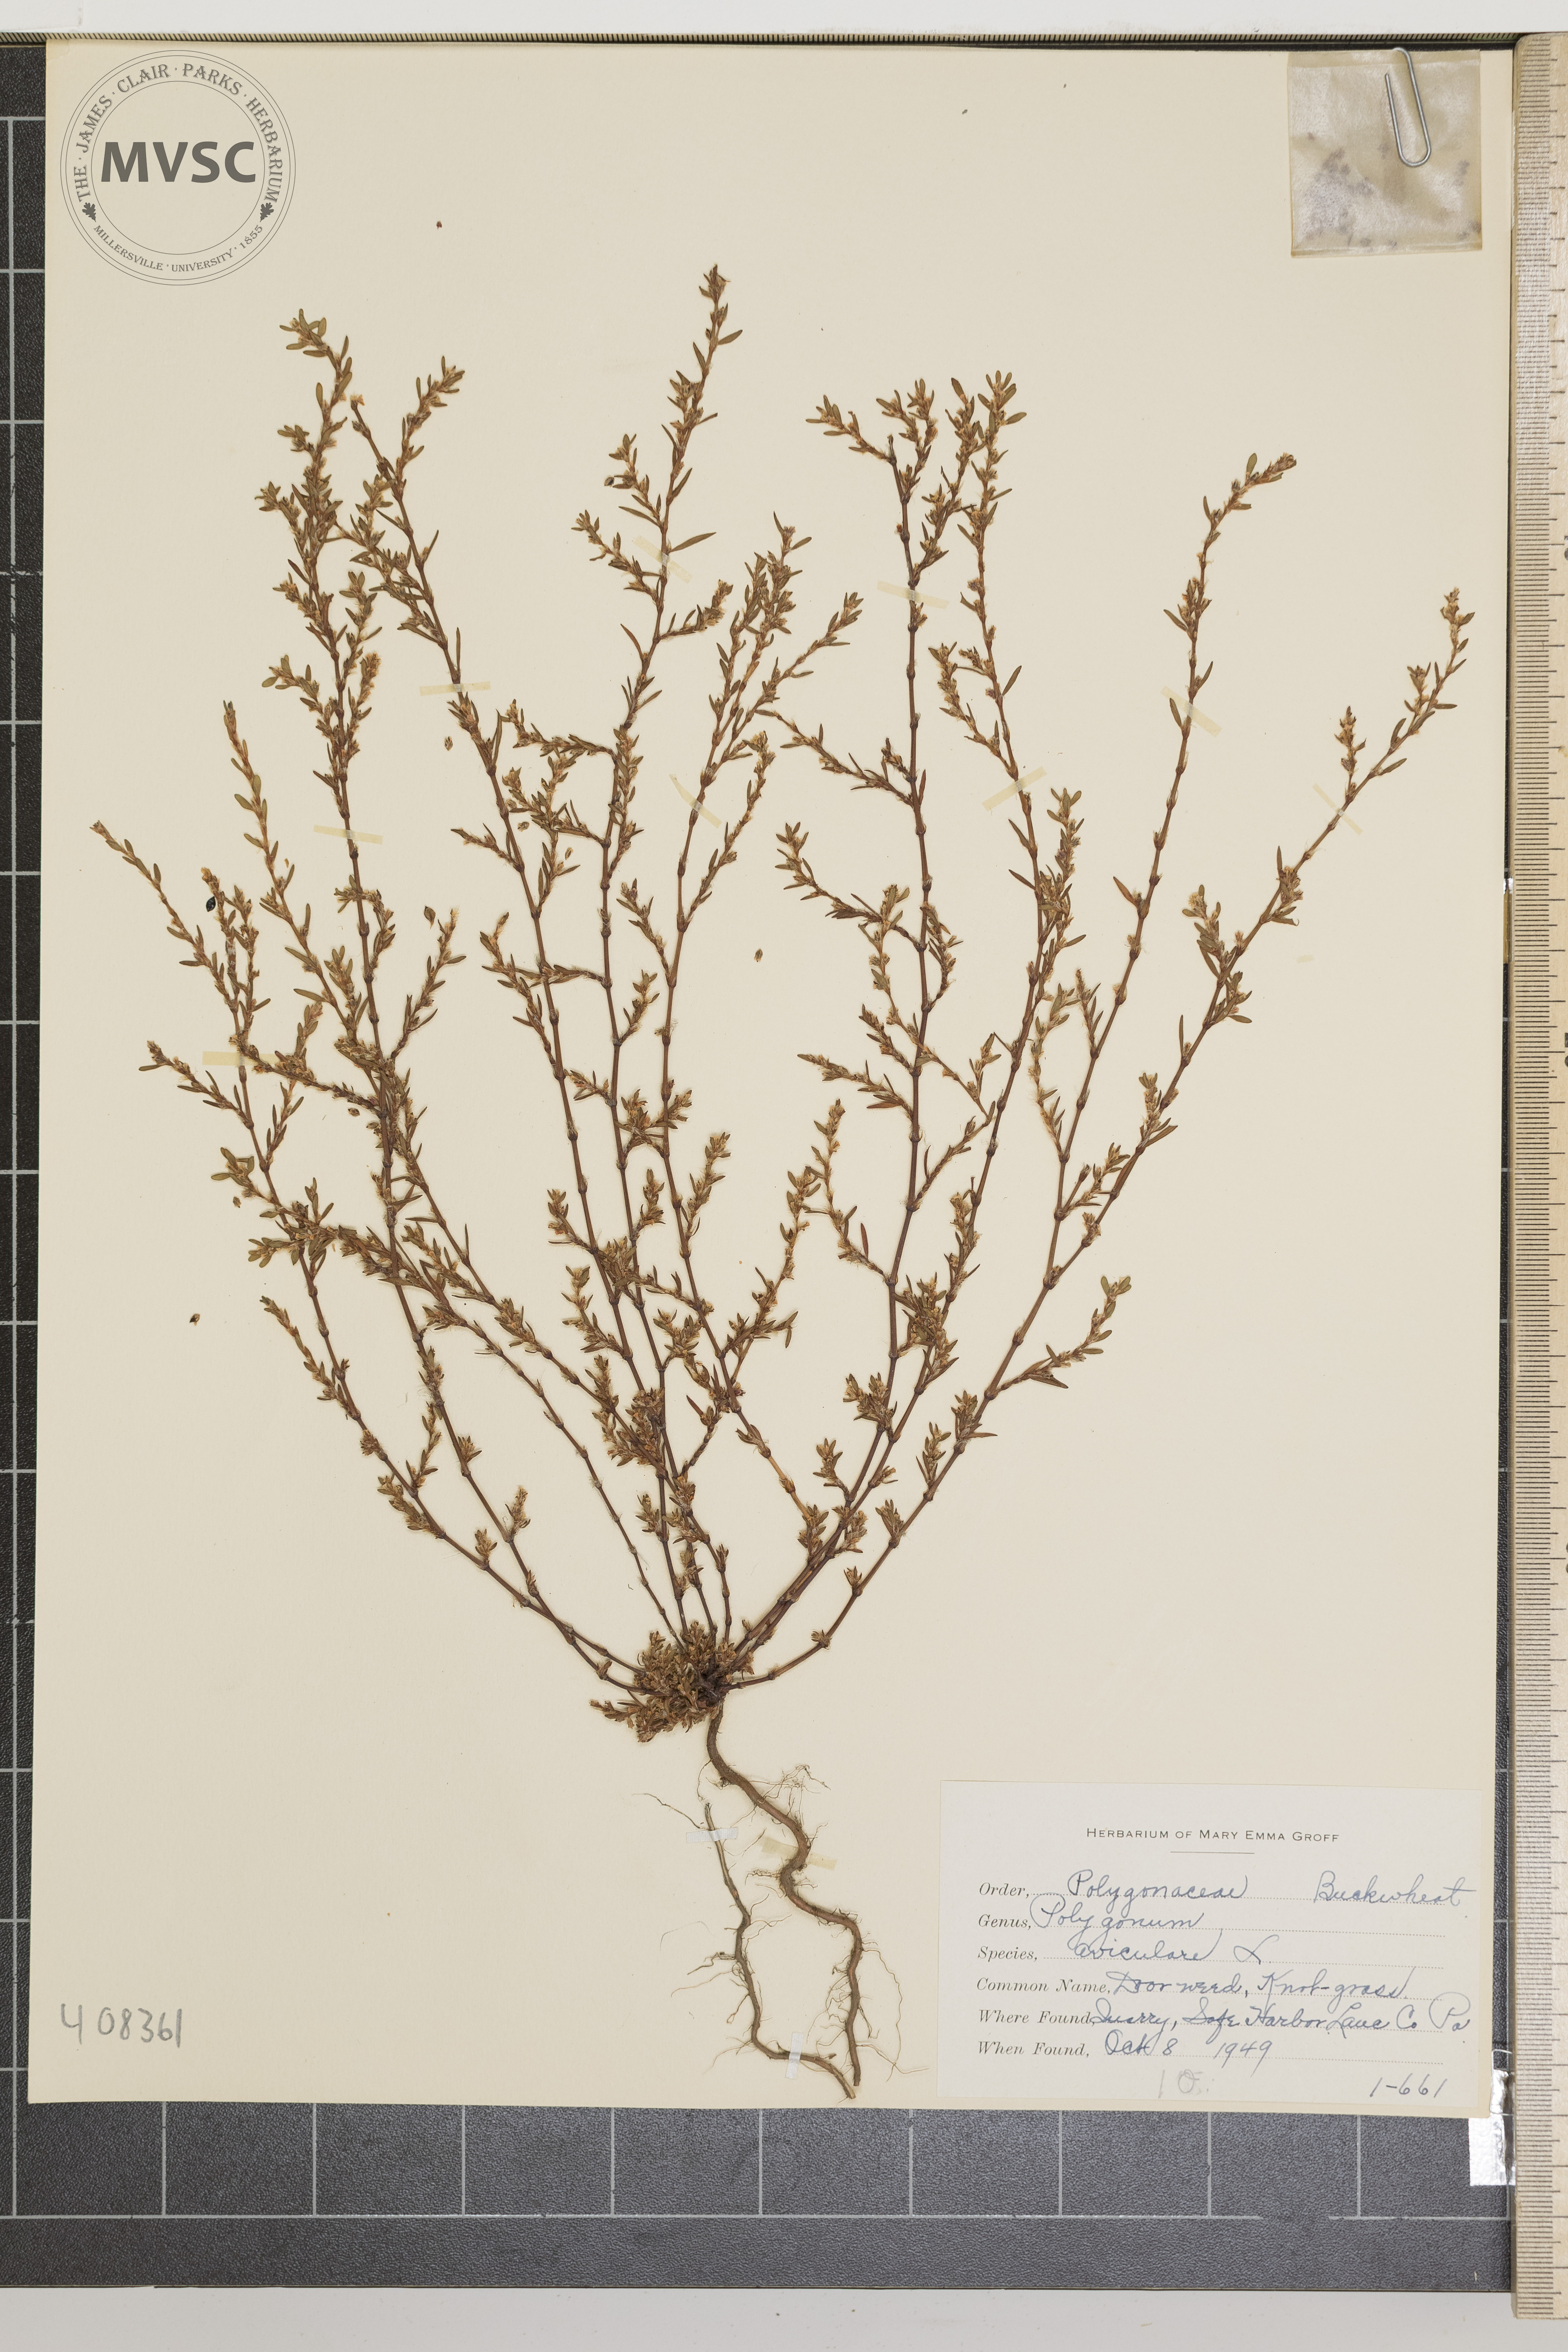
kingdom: Plantae
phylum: Tracheophyta
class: Magnoliopsida
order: Caryophyllales
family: Polygonaceae
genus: Polygonum
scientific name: Polygonum aviculare
